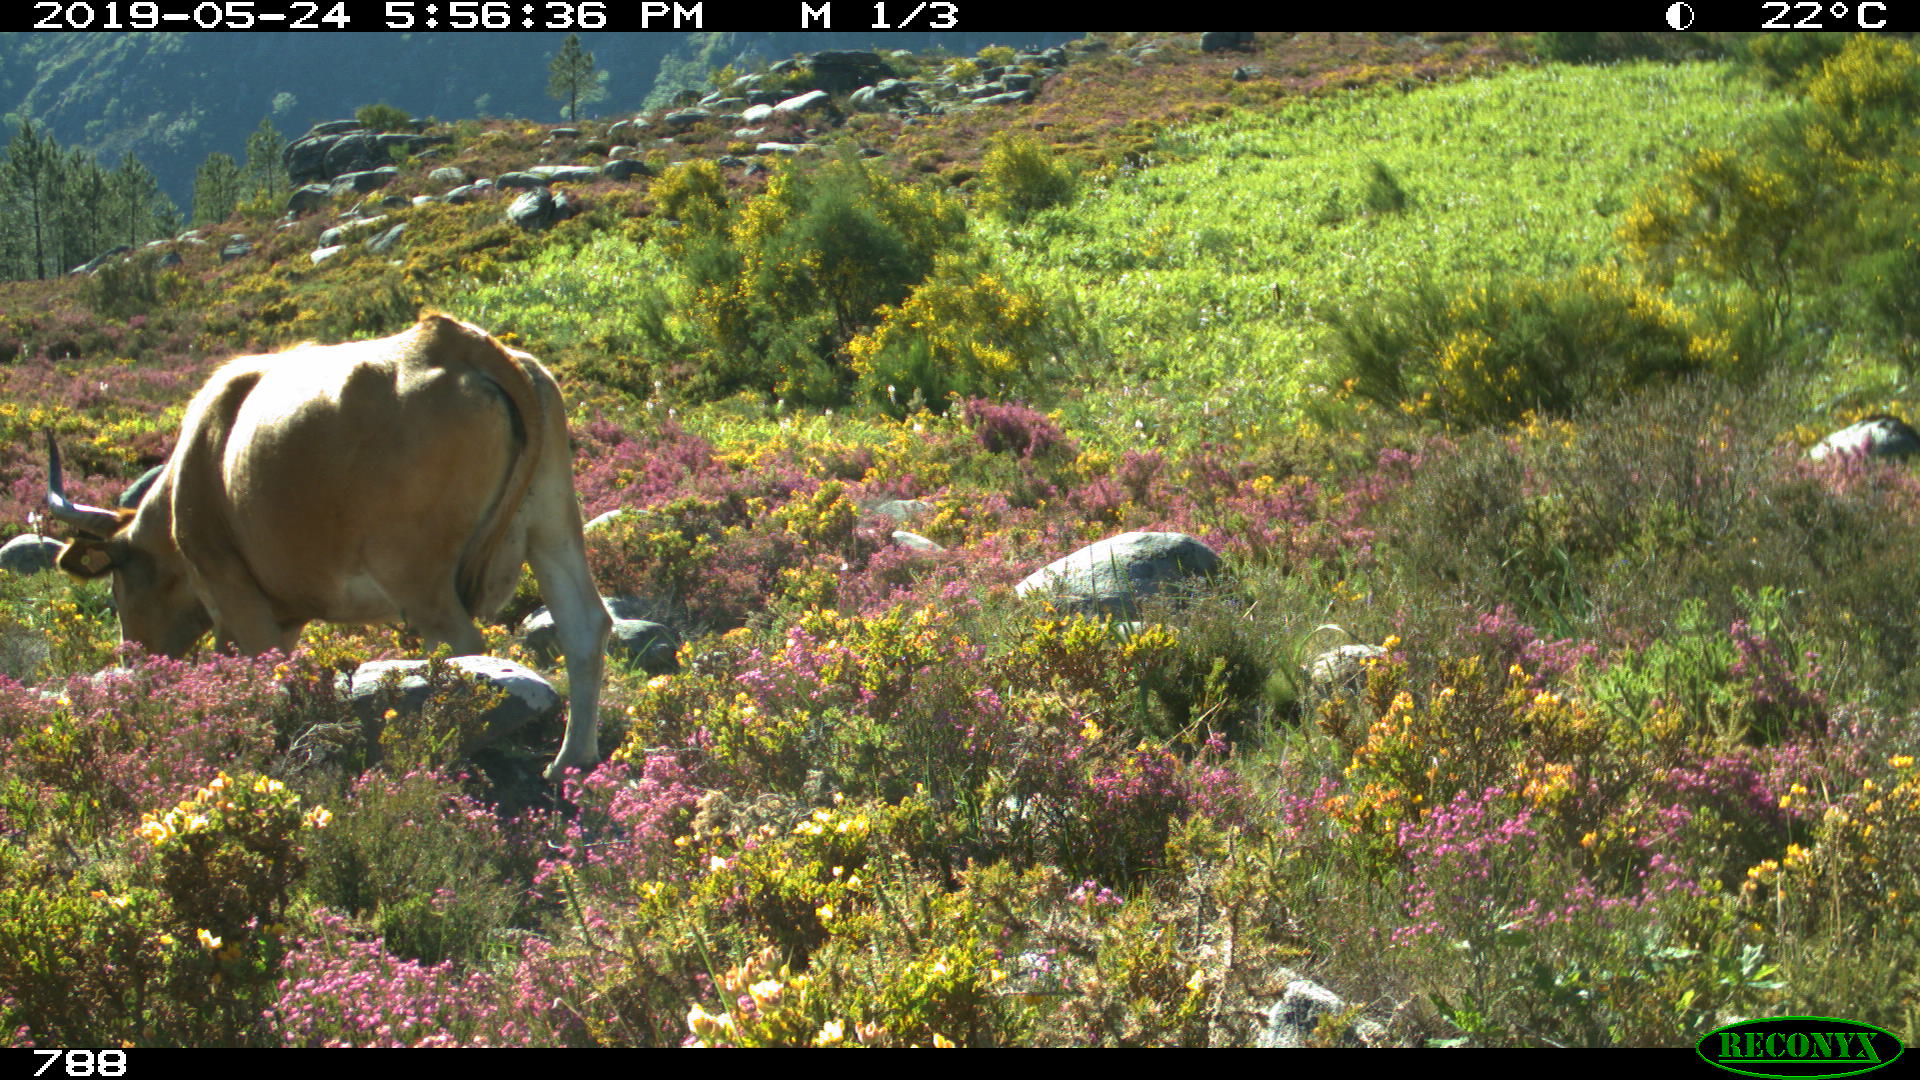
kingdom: Animalia
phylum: Chordata
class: Mammalia
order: Artiodactyla
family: Bovidae
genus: Bos
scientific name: Bos taurus
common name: Domesticated cattle
